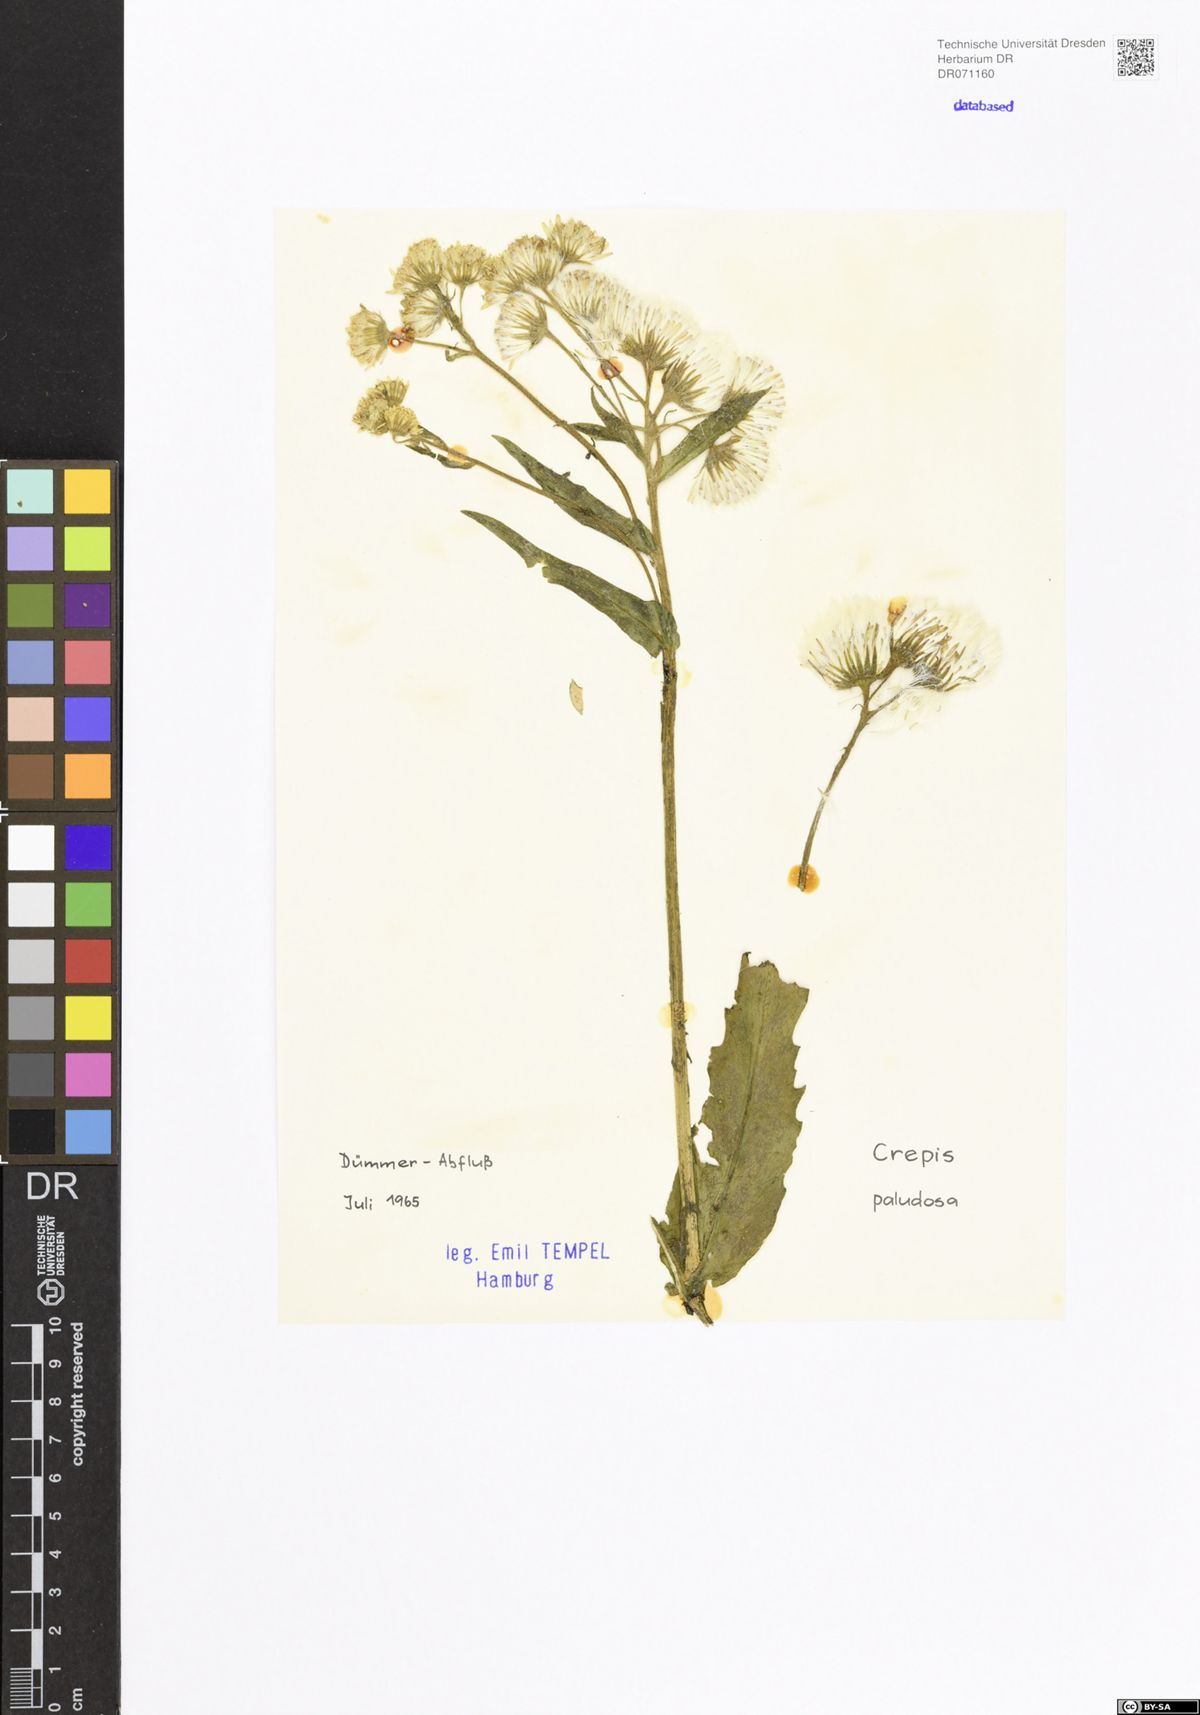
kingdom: Plantae
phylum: Tracheophyta
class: Magnoliopsida
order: Asterales
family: Asteraceae
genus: Crepis
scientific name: Crepis paludosa
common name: Marsh hawk's-beard
